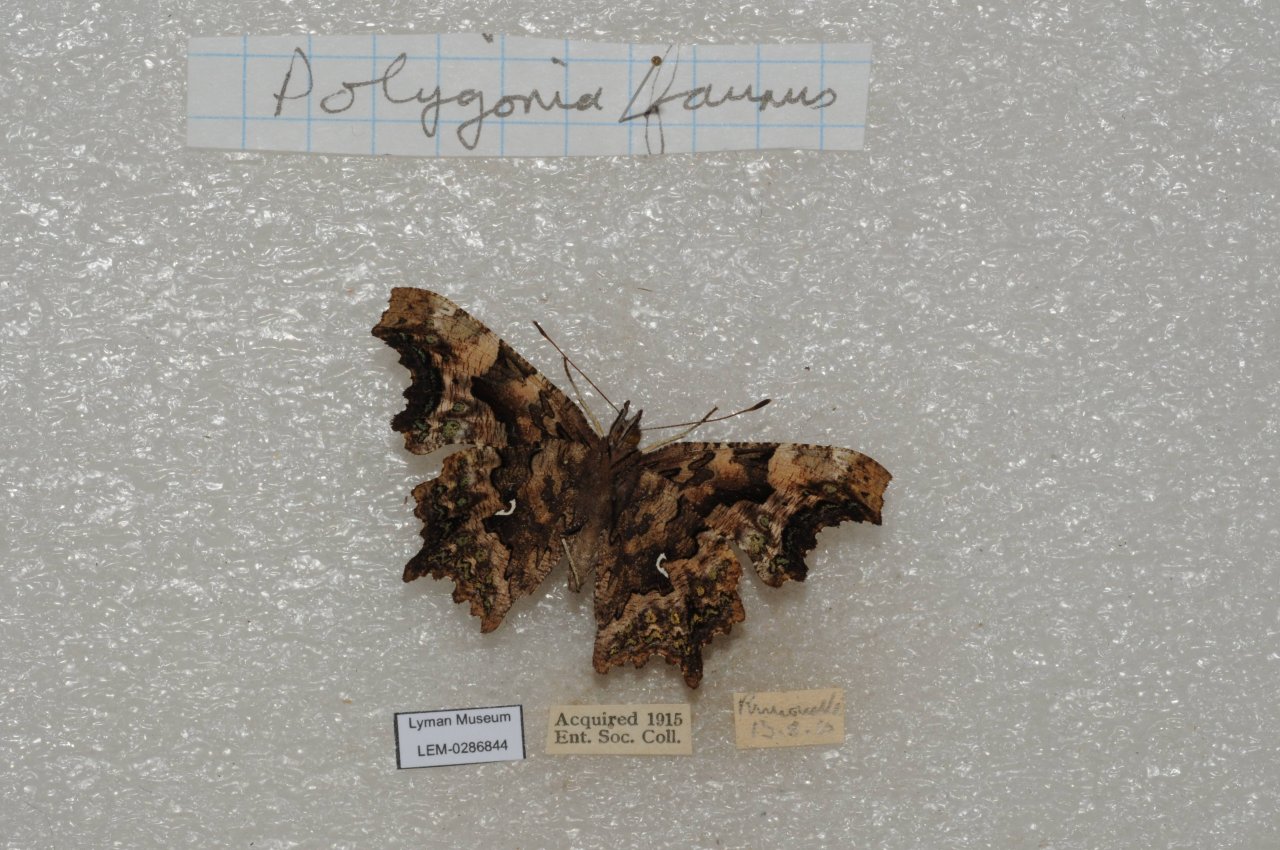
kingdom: Animalia
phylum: Arthropoda
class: Insecta
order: Lepidoptera
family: Nymphalidae
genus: Polygonia
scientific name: Polygonia faunus
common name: Green Comma
